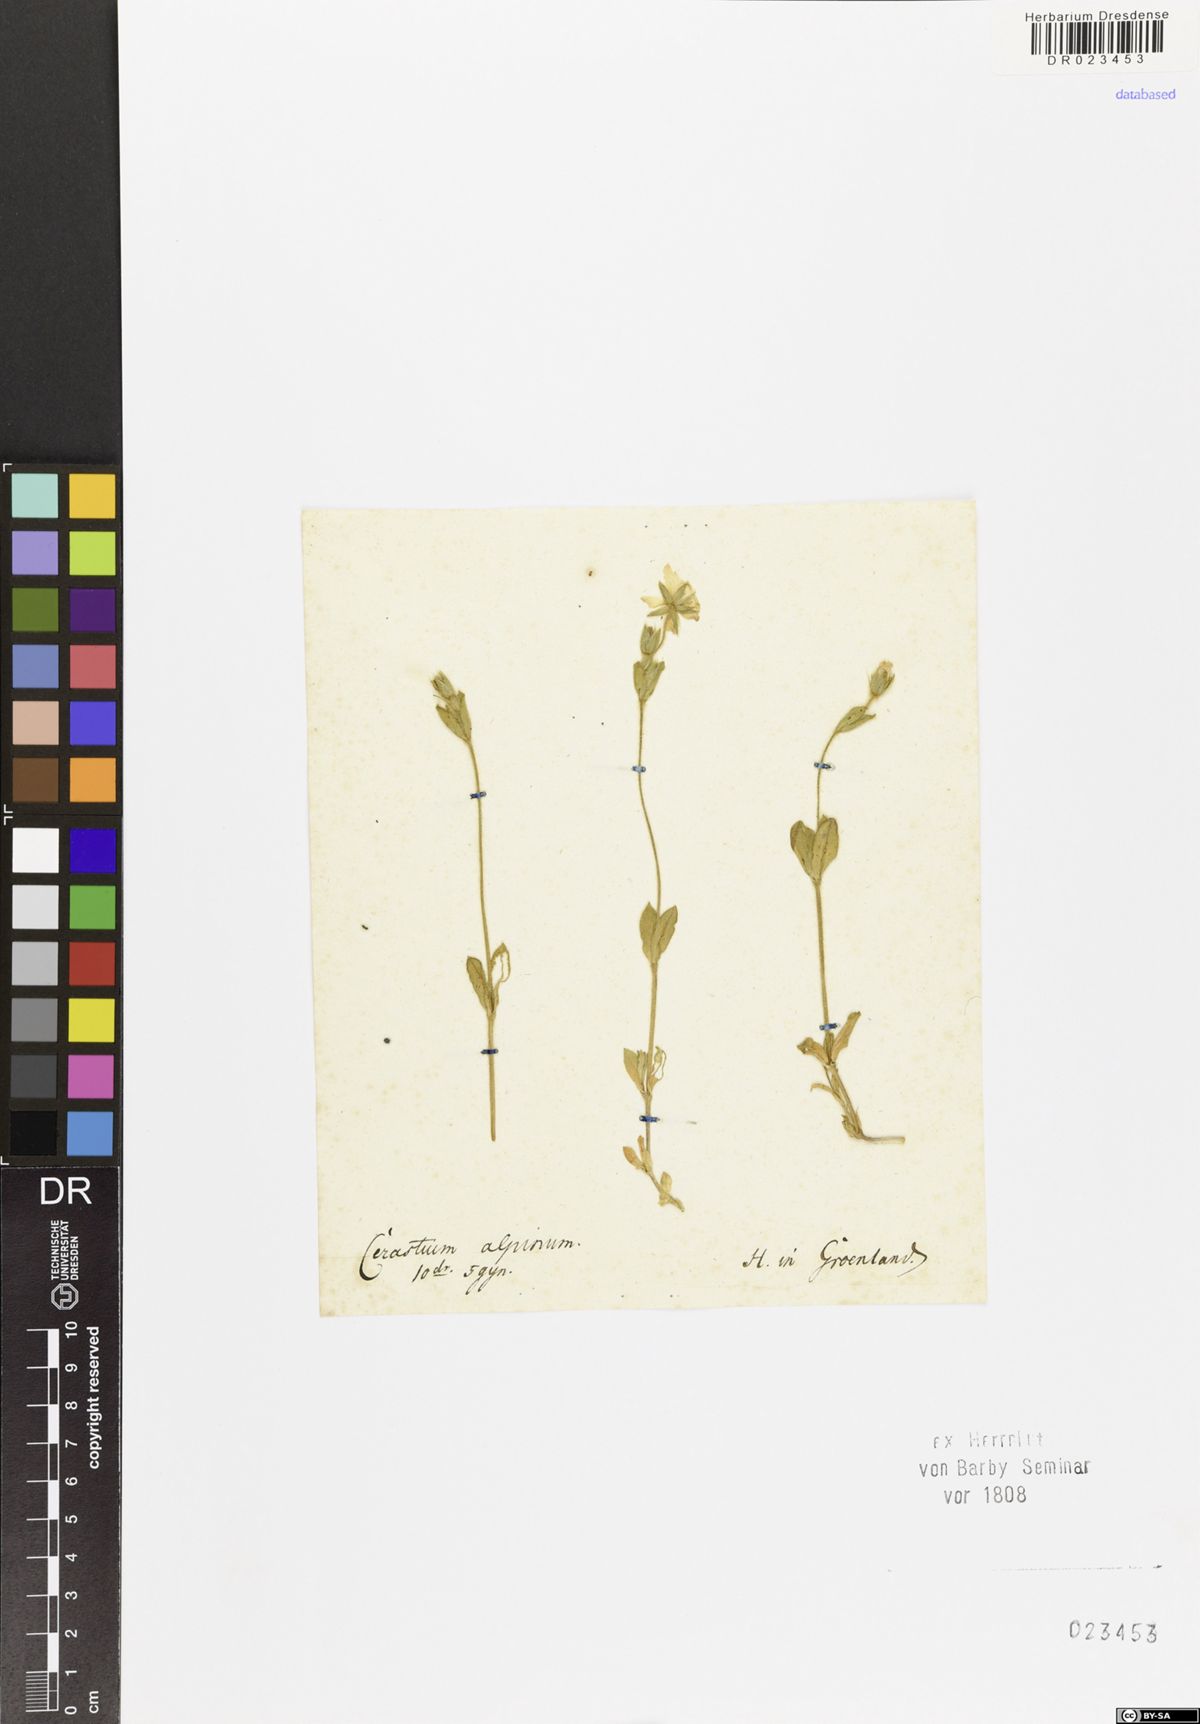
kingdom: Plantae
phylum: Tracheophyta
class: Magnoliopsida
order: Caryophyllales
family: Caryophyllaceae
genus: Cerastium
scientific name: Cerastium alpinum
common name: Alpine mouse-ear
